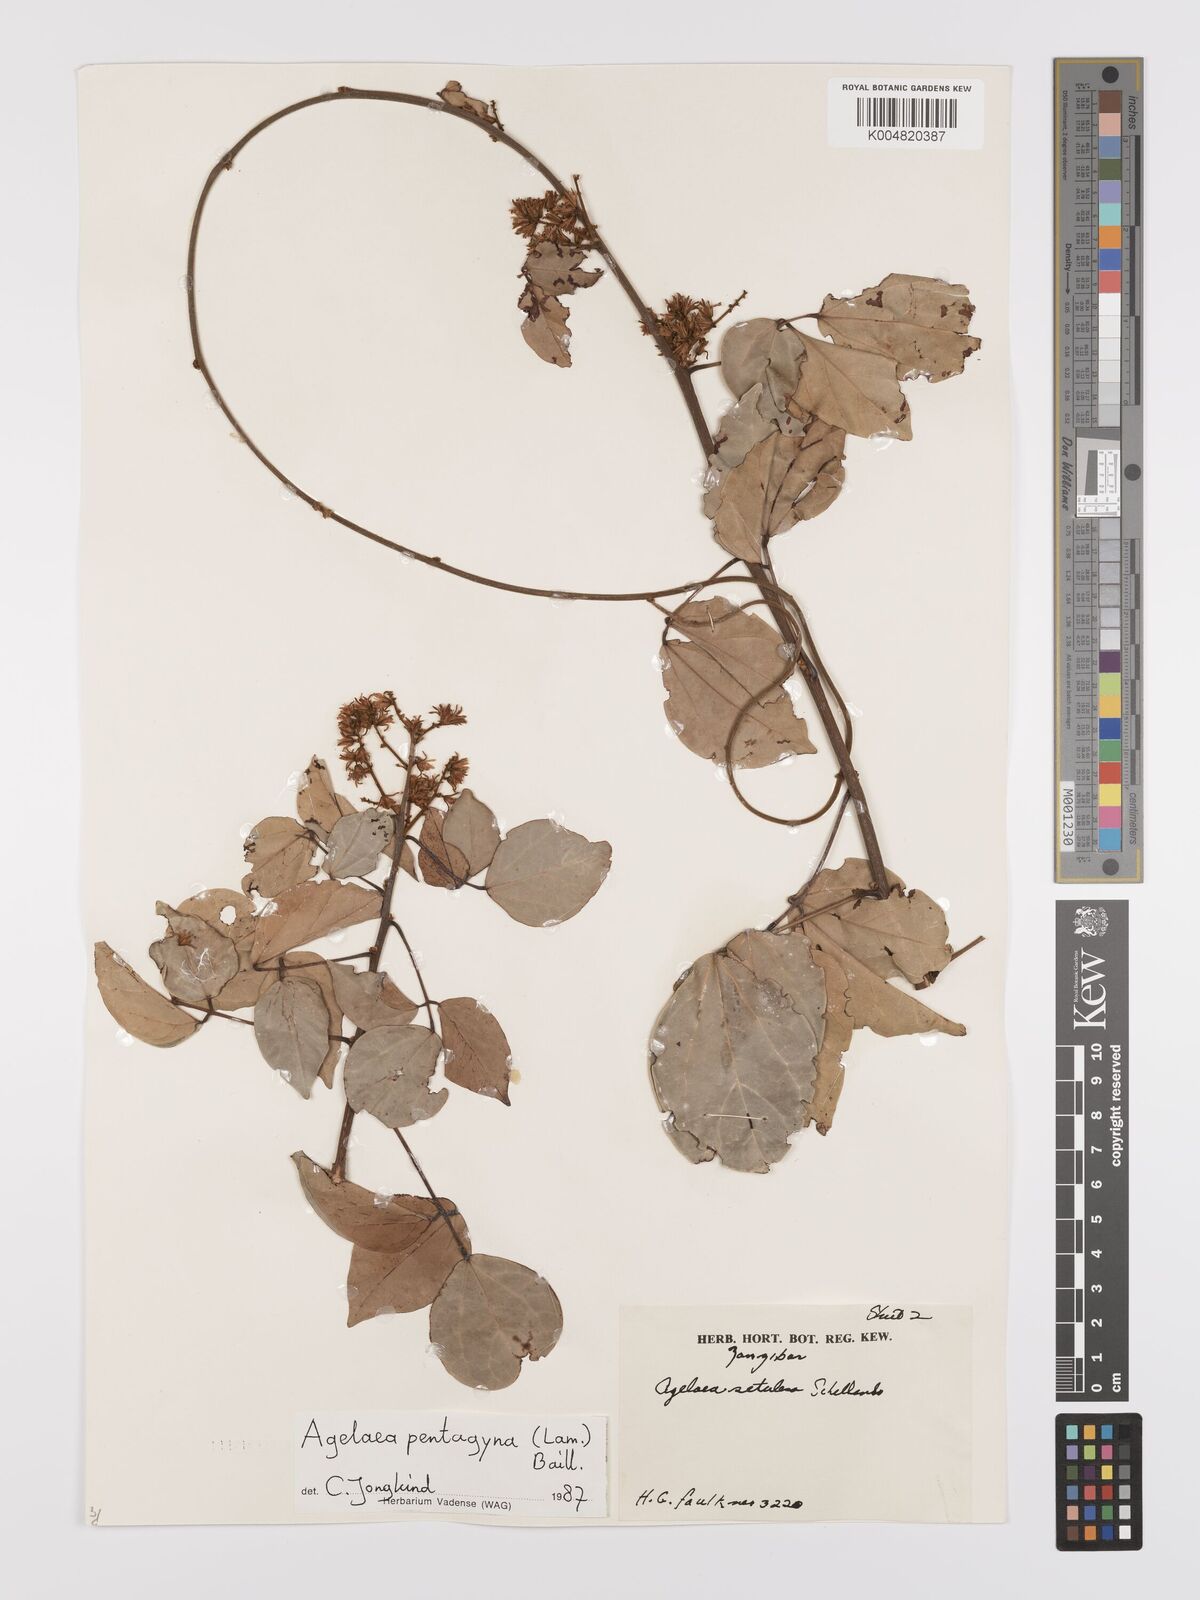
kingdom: Plantae
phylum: Tracheophyta
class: Magnoliopsida
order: Oxalidales
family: Connaraceae
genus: Agelaea
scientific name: Agelaea pentagyna
